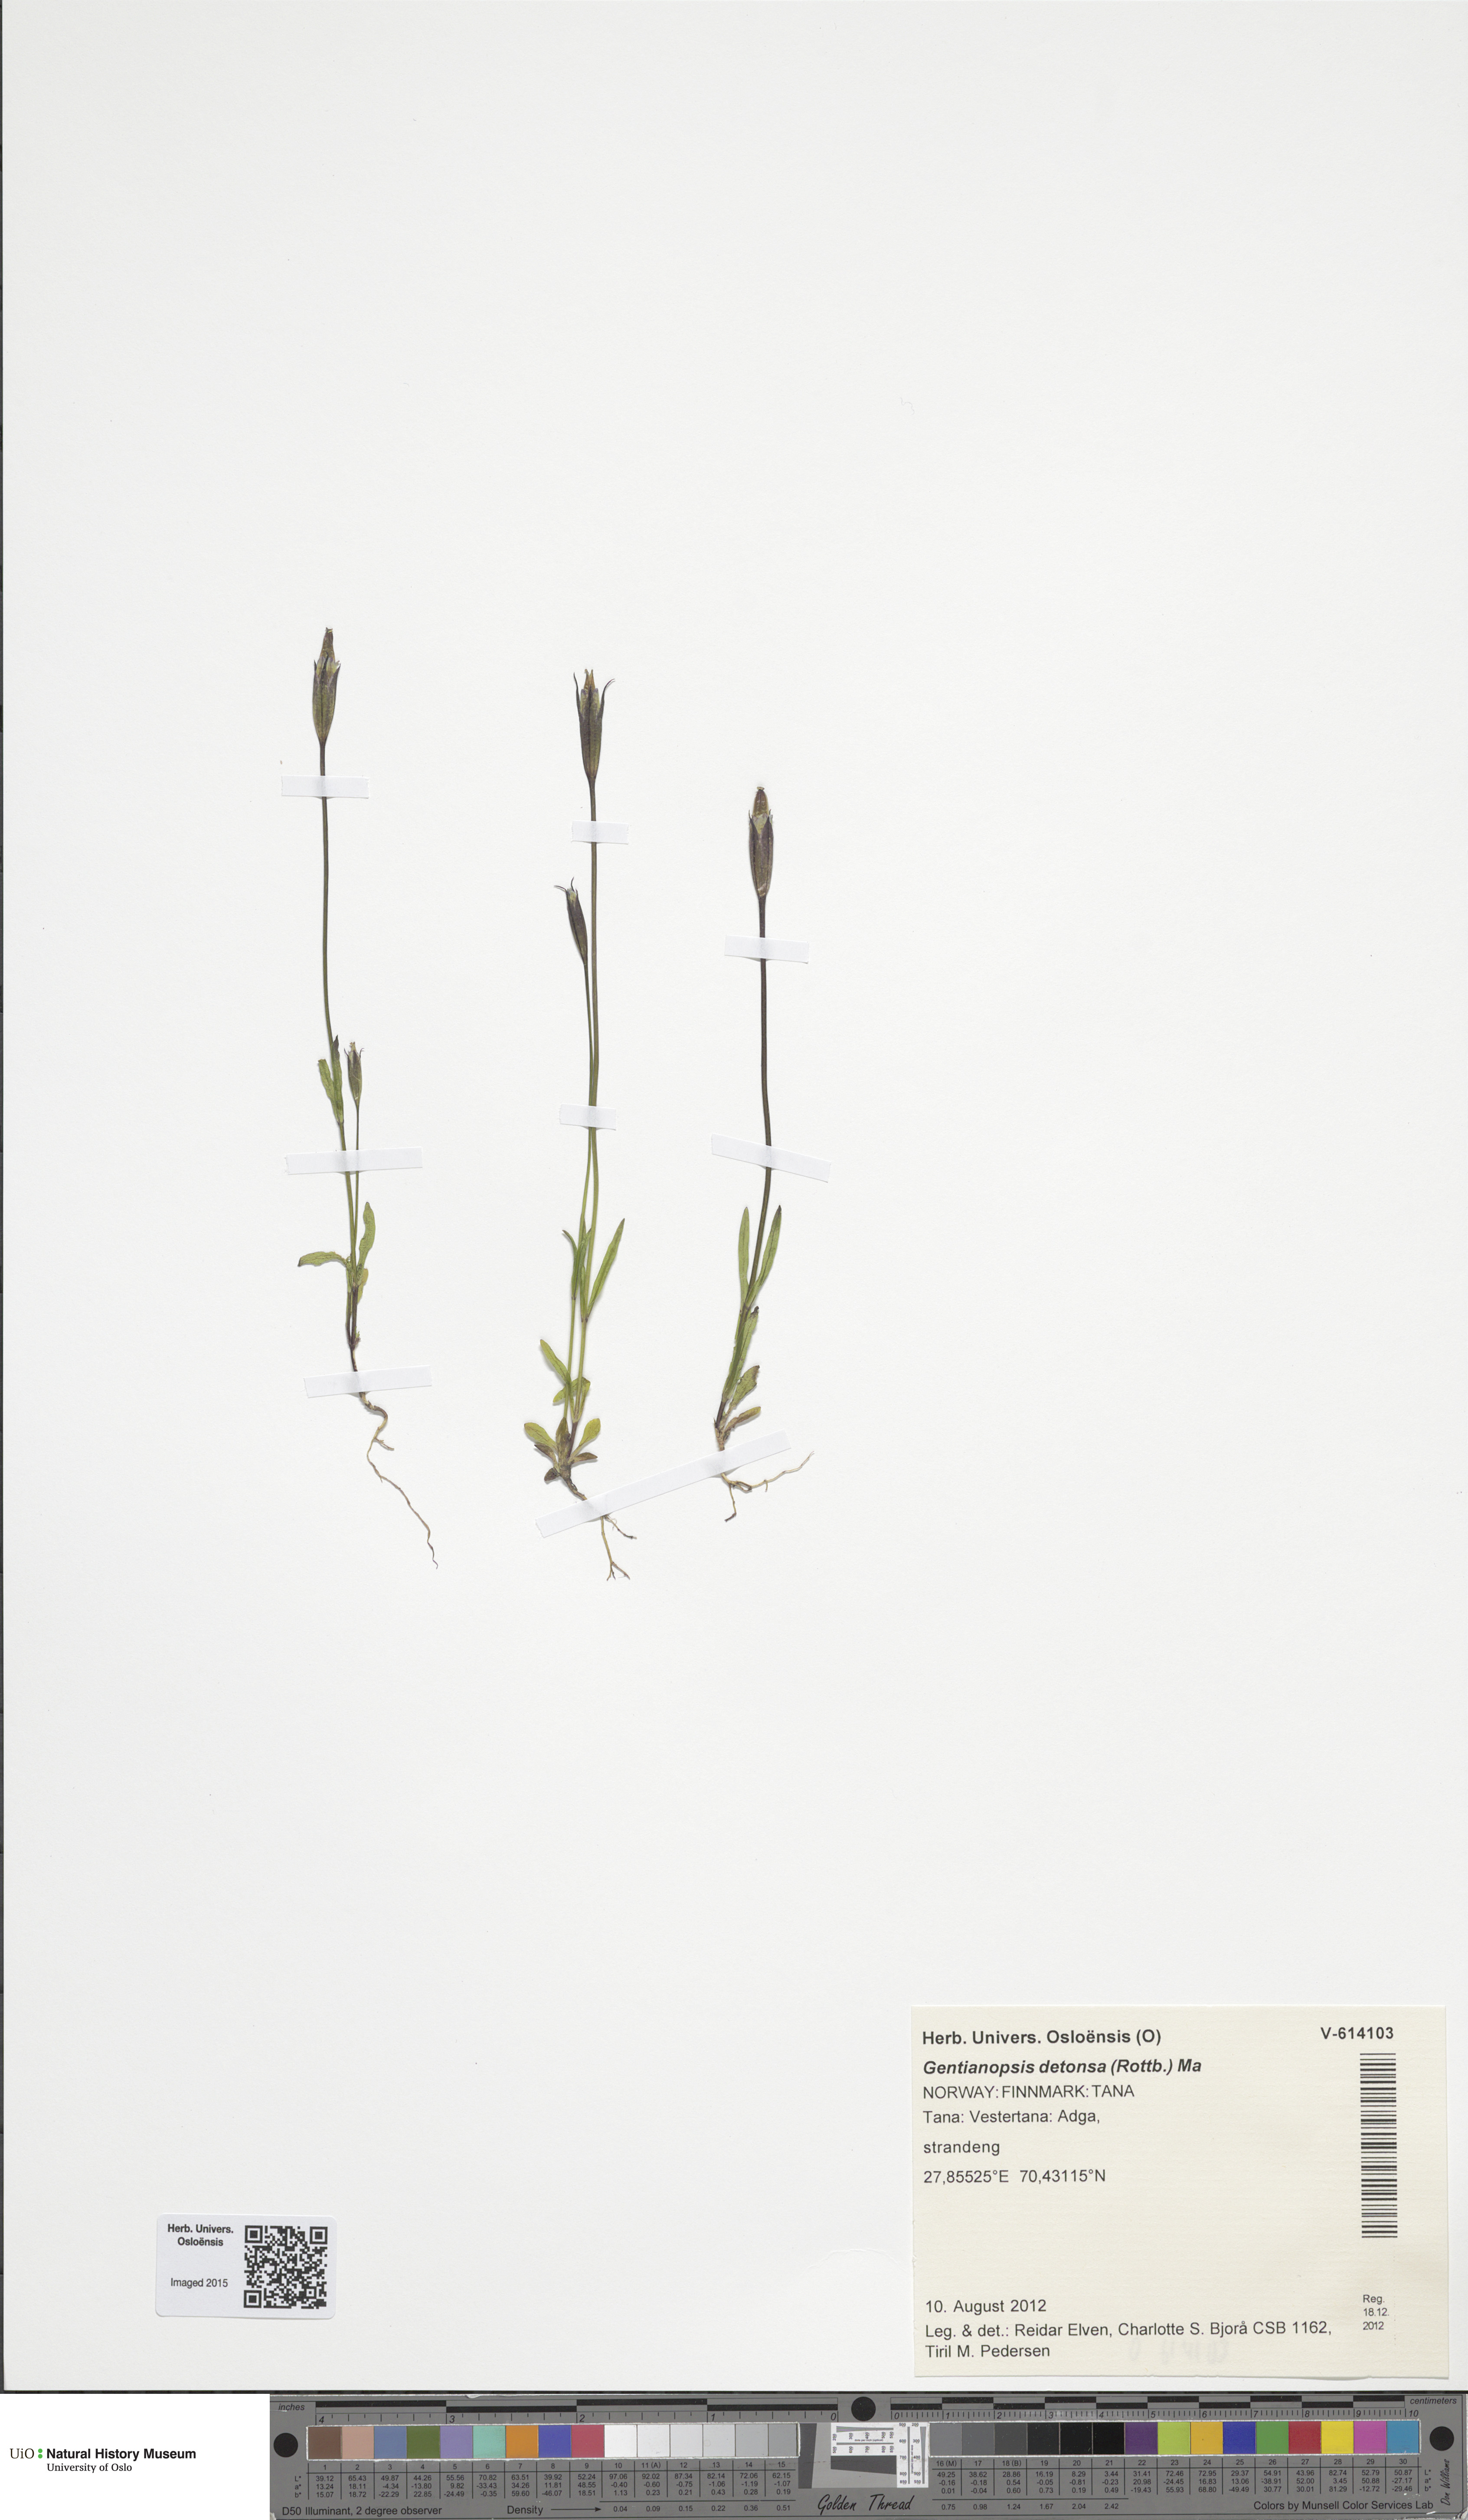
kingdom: Plantae
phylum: Tracheophyta
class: Magnoliopsida
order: Gentianales
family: Gentianaceae
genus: Gentianopsis
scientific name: Gentianopsis detonsa
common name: Fringed-gentian
